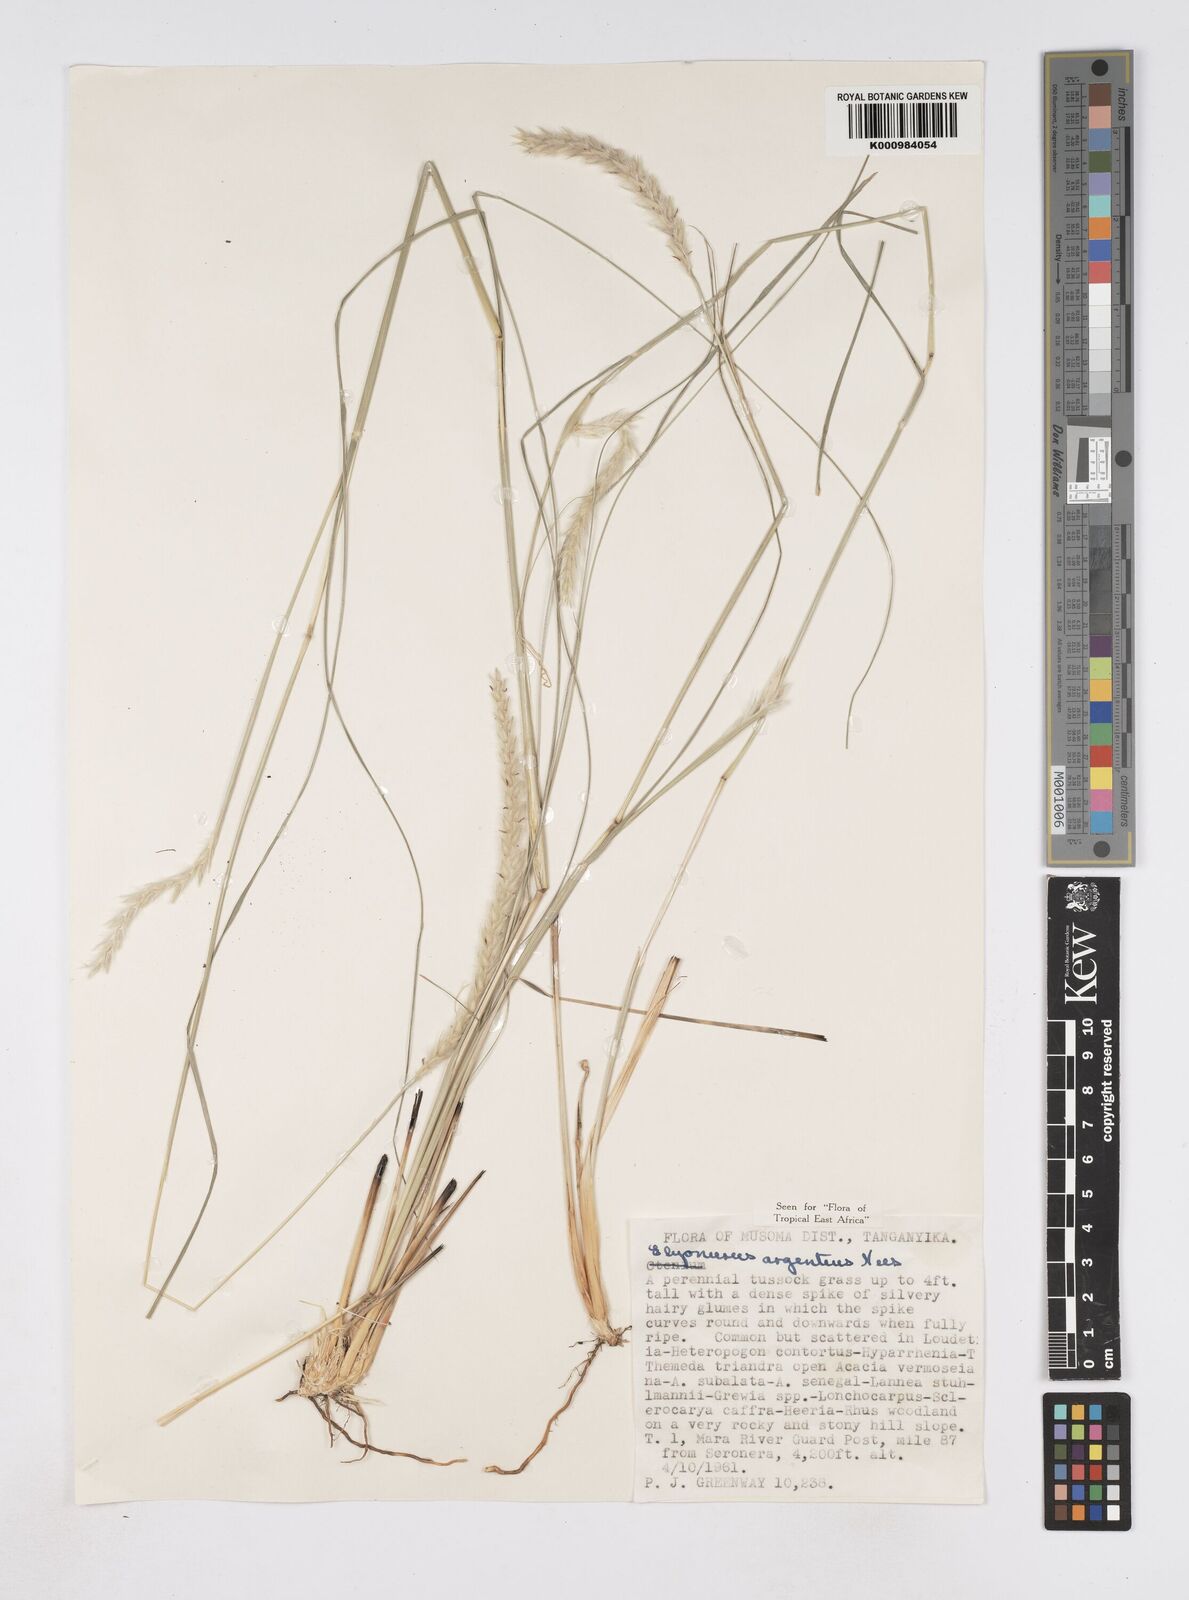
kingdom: Plantae
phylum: Tracheophyta
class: Liliopsida
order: Poales
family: Poaceae
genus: Elionurus
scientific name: Elionurus muticus
